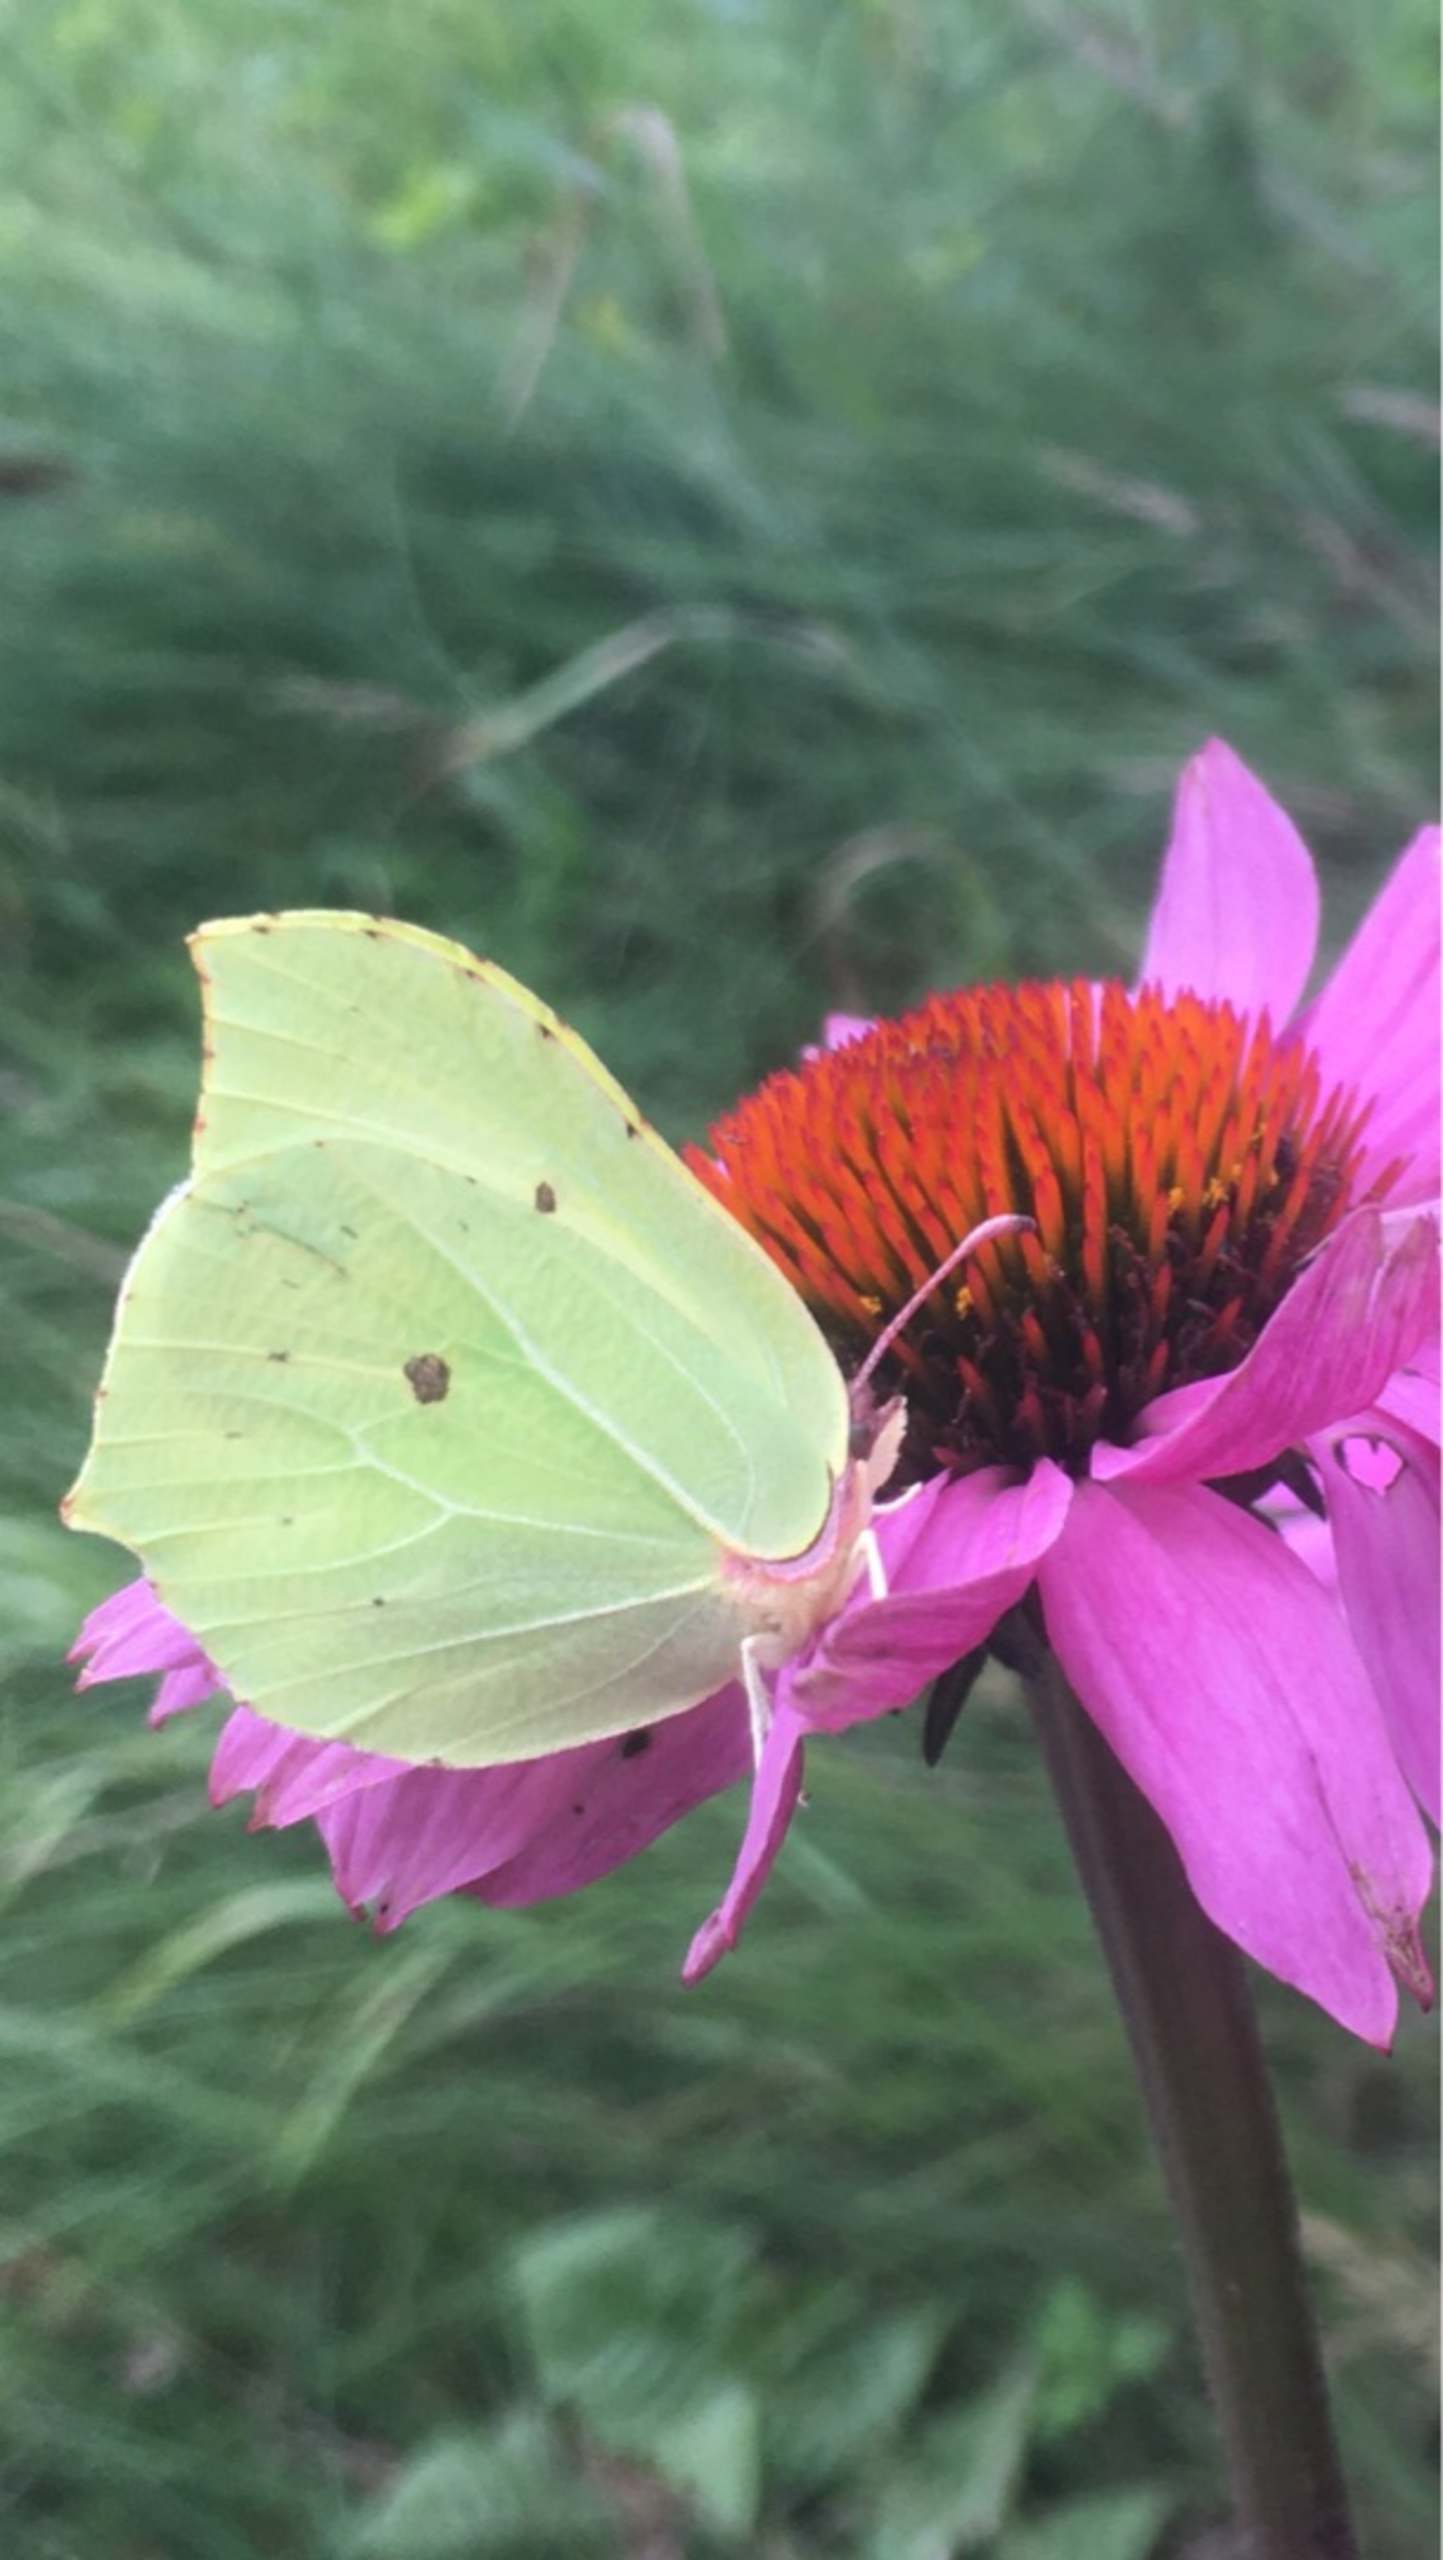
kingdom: Animalia
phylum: Arthropoda
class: Insecta
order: Lepidoptera
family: Pieridae
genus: Gonepteryx
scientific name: Gonepteryx rhamni
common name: Citronsommerfugl
